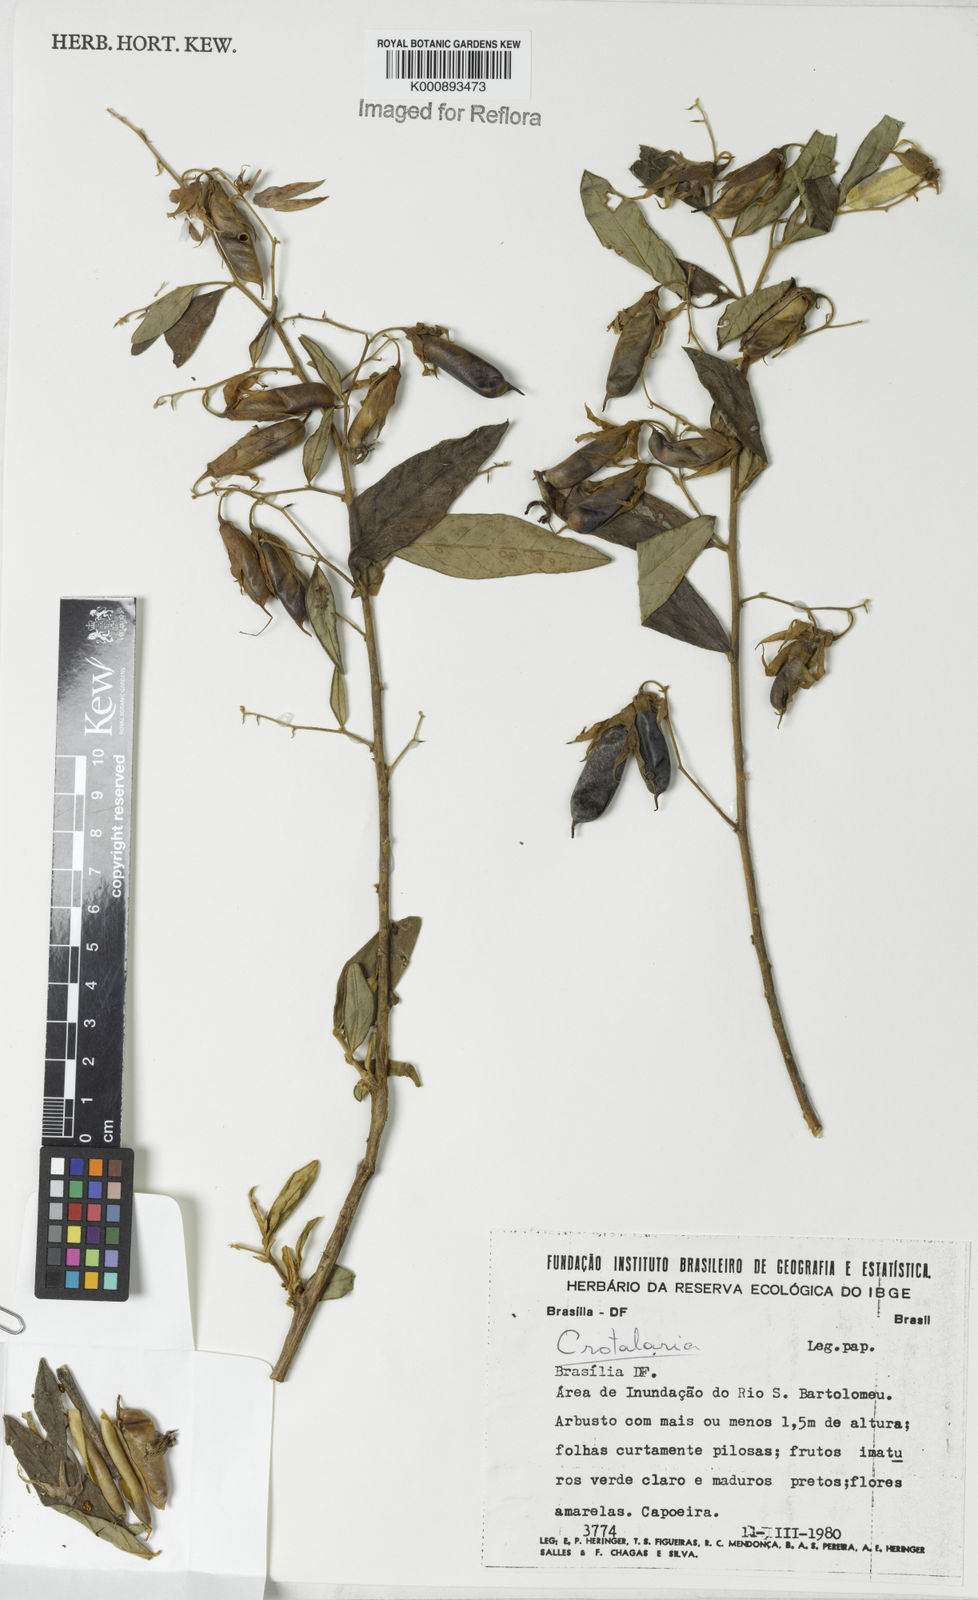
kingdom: Plantae
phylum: Tracheophyta
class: Magnoliopsida
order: Fabales
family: Fabaceae
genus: Crotalaria
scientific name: Crotalaria grandiflora
